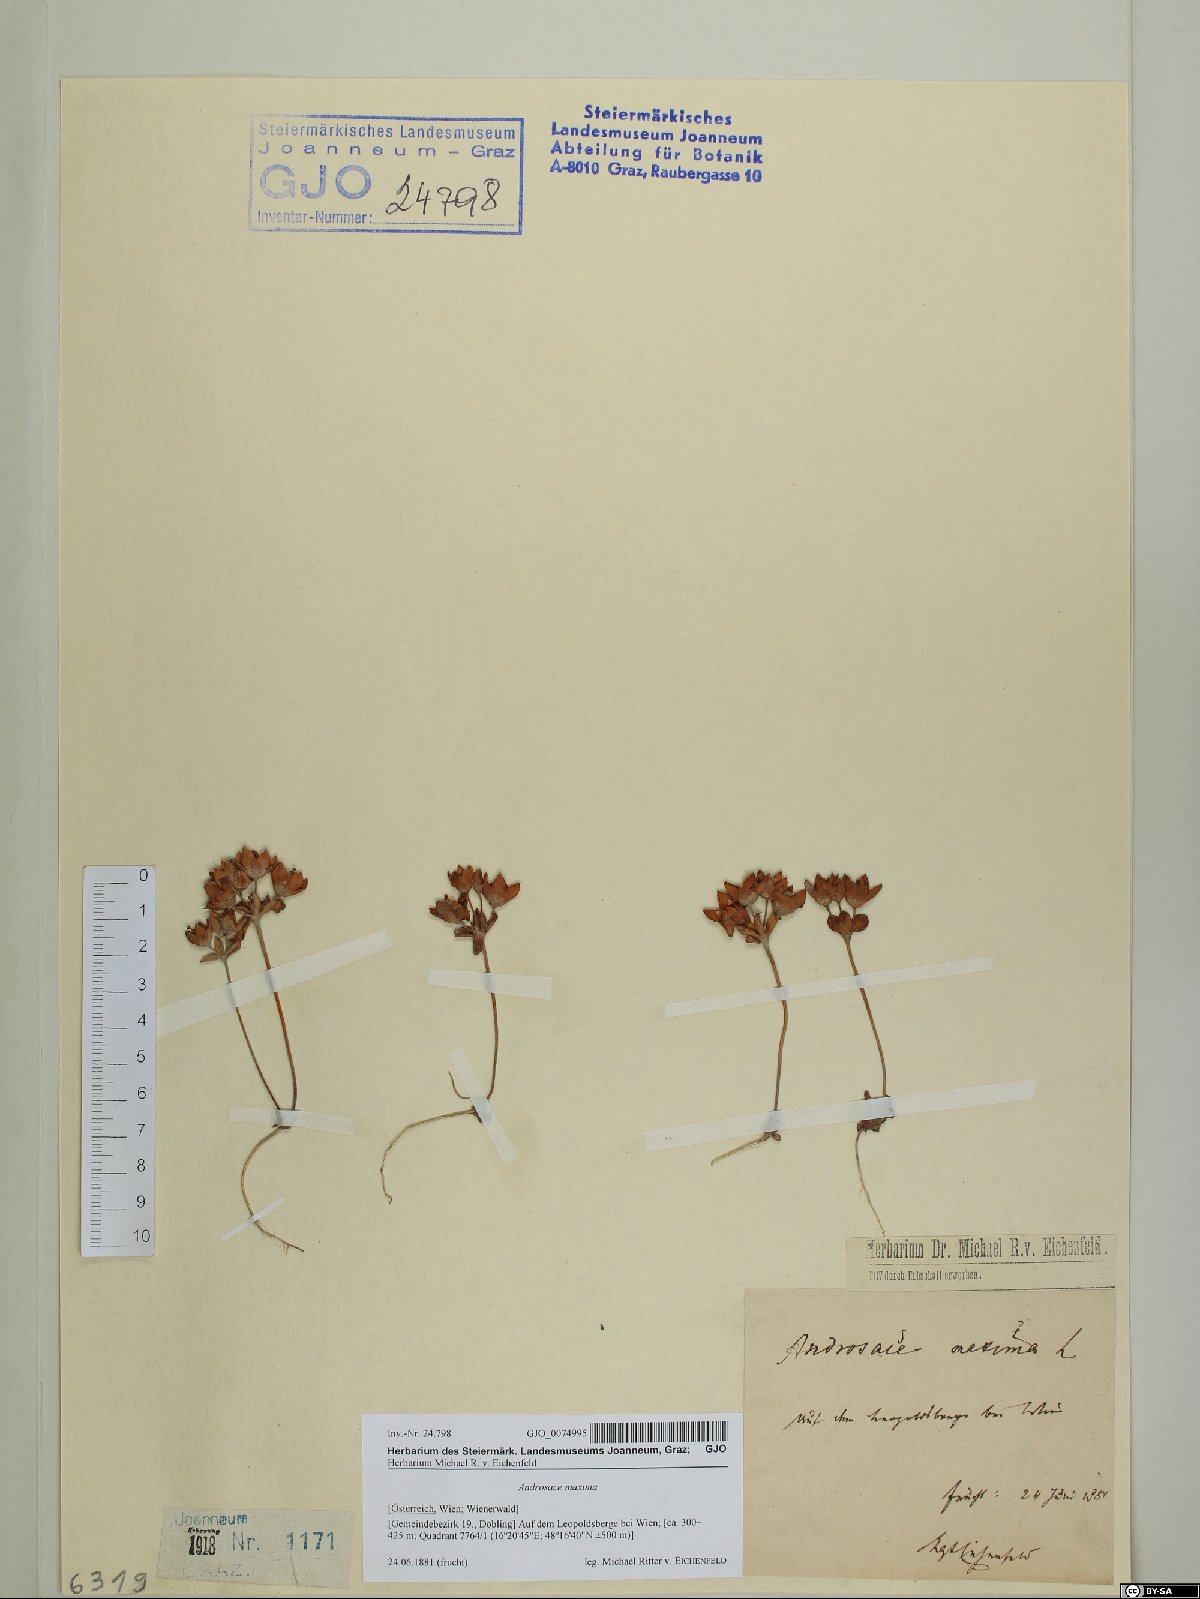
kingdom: Plantae
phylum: Tracheophyta
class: Magnoliopsida
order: Ericales
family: Primulaceae
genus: Androsace
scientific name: Androsace maxima
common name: Annual androsace
